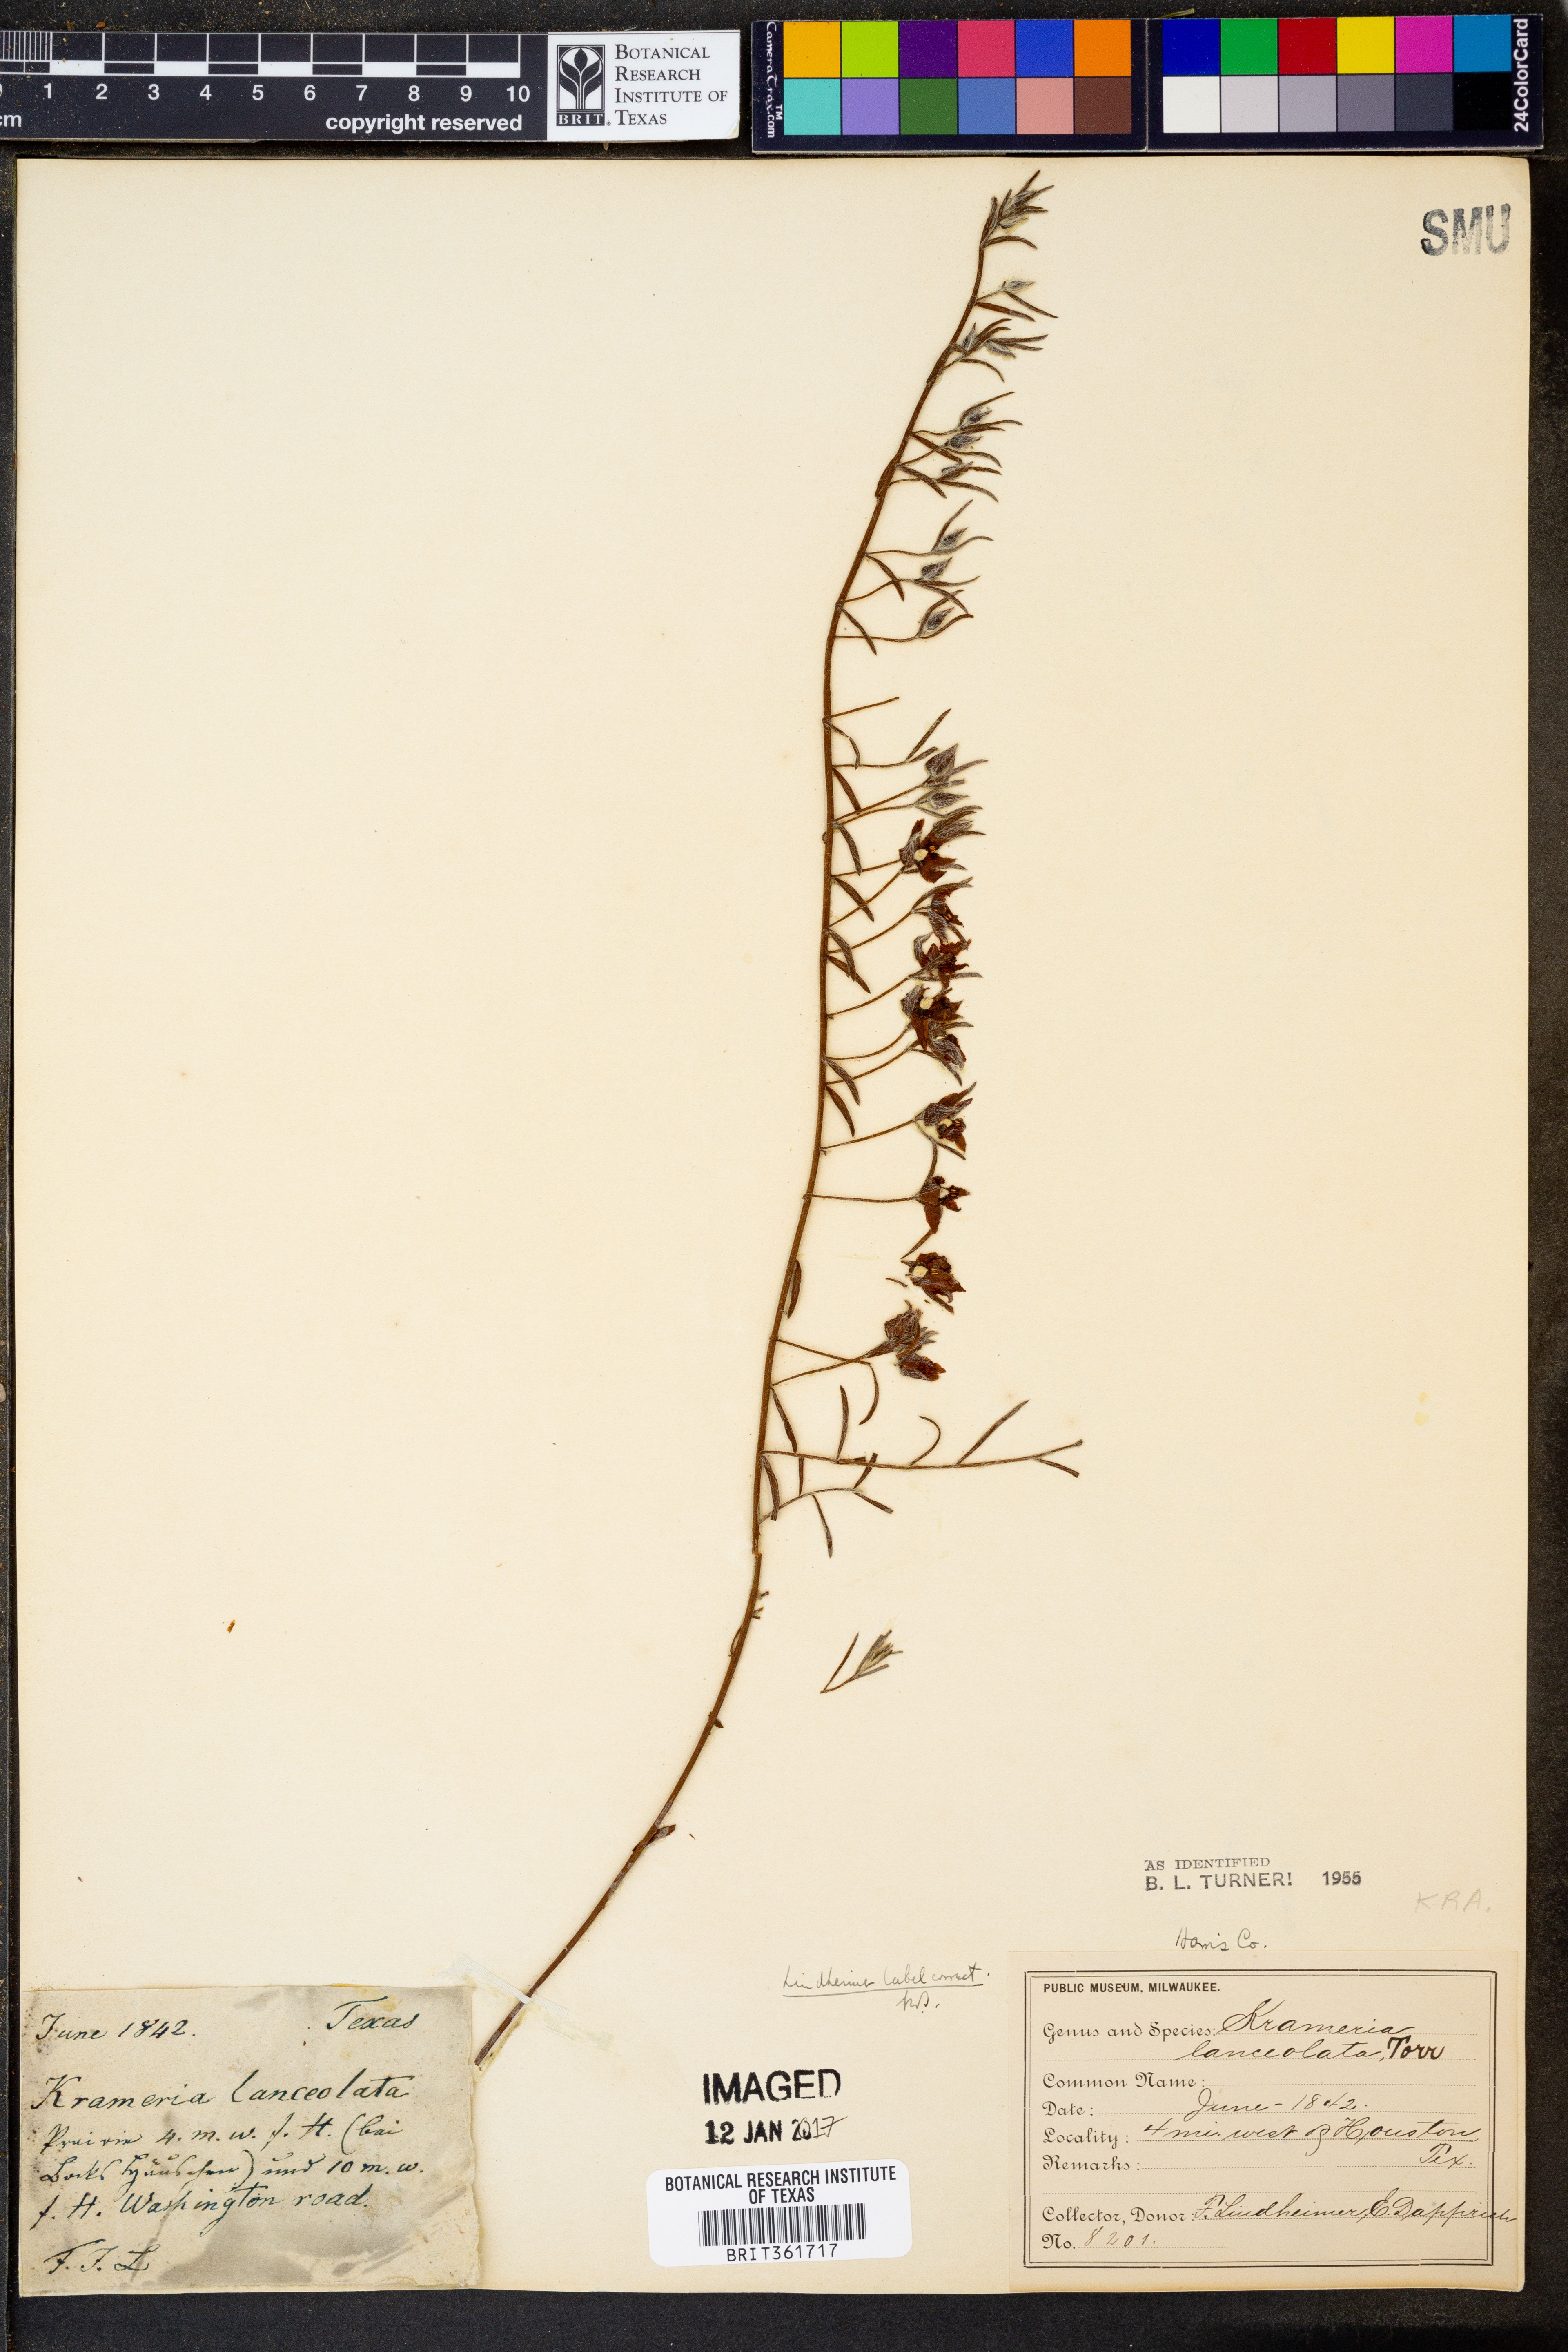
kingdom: Plantae
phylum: Tracheophyta
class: Magnoliopsida
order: Zygophyllales
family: Krameriaceae
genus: Krameria
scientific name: Krameria lanceolata
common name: Ratany
